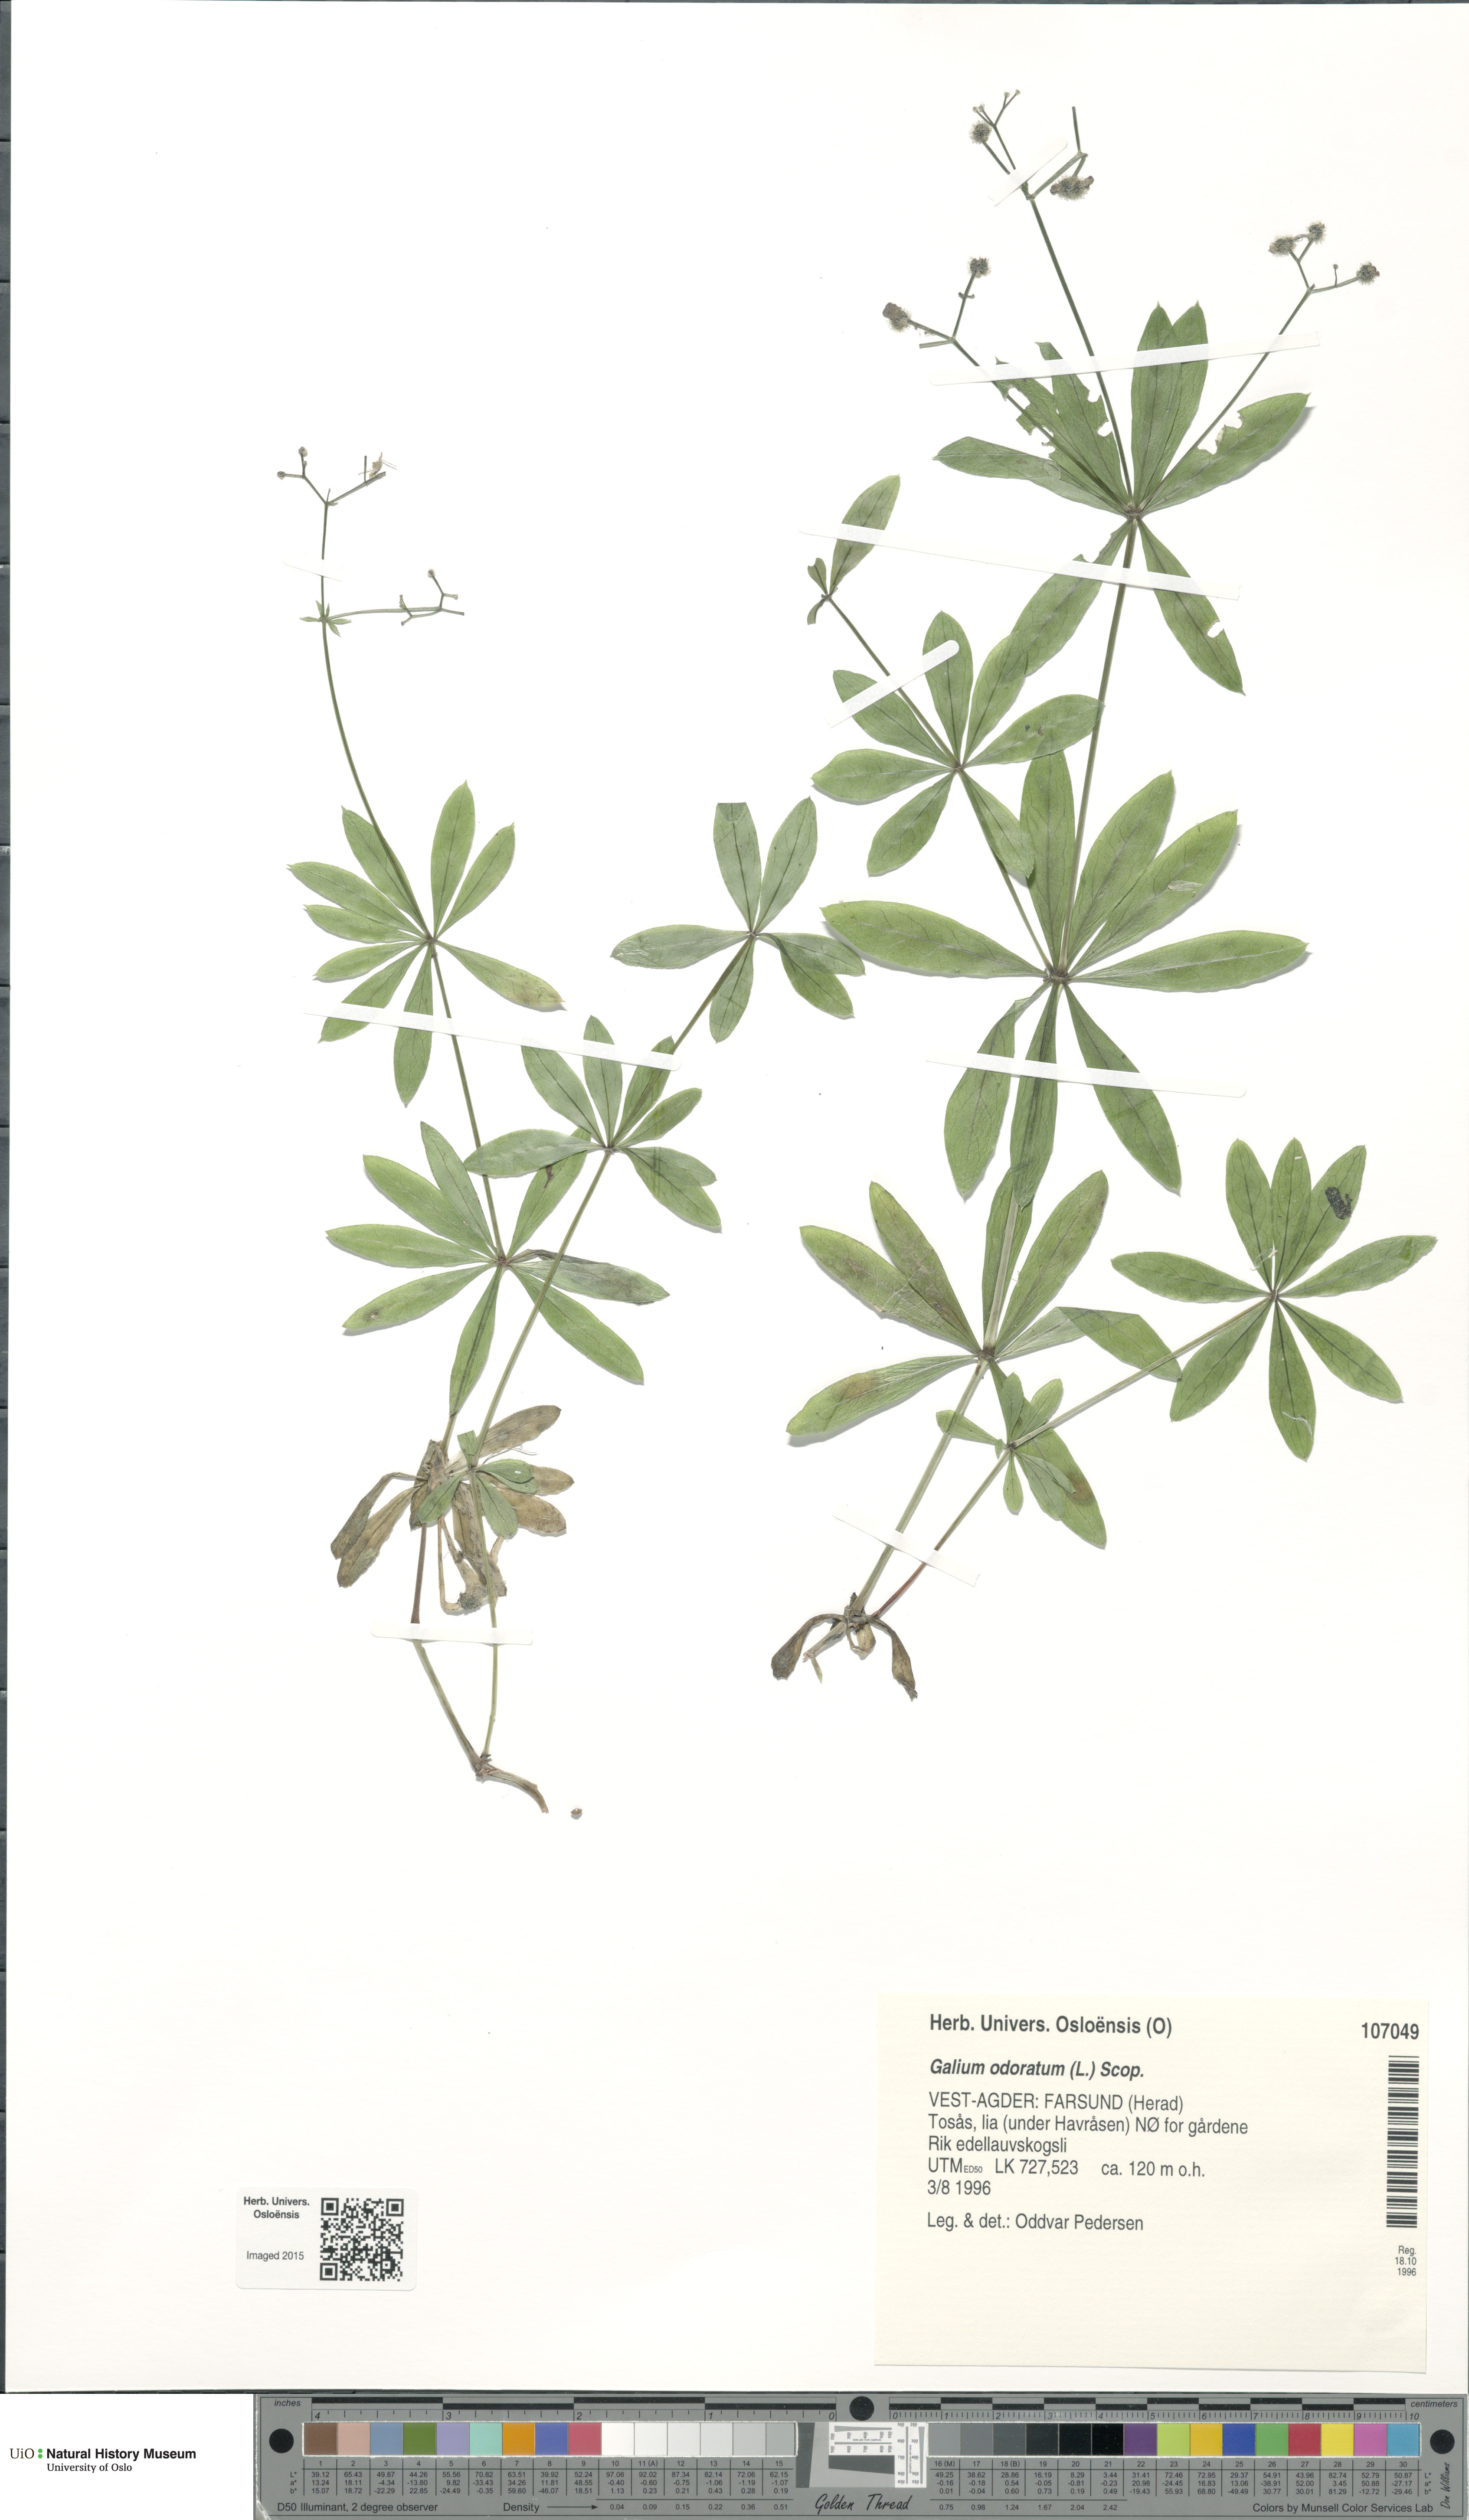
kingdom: Plantae
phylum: Tracheophyta
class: Magnoliopsida
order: Gentianales
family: Rubiaceae
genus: Galium
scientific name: Galium odoratum
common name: Sweet woodruff
